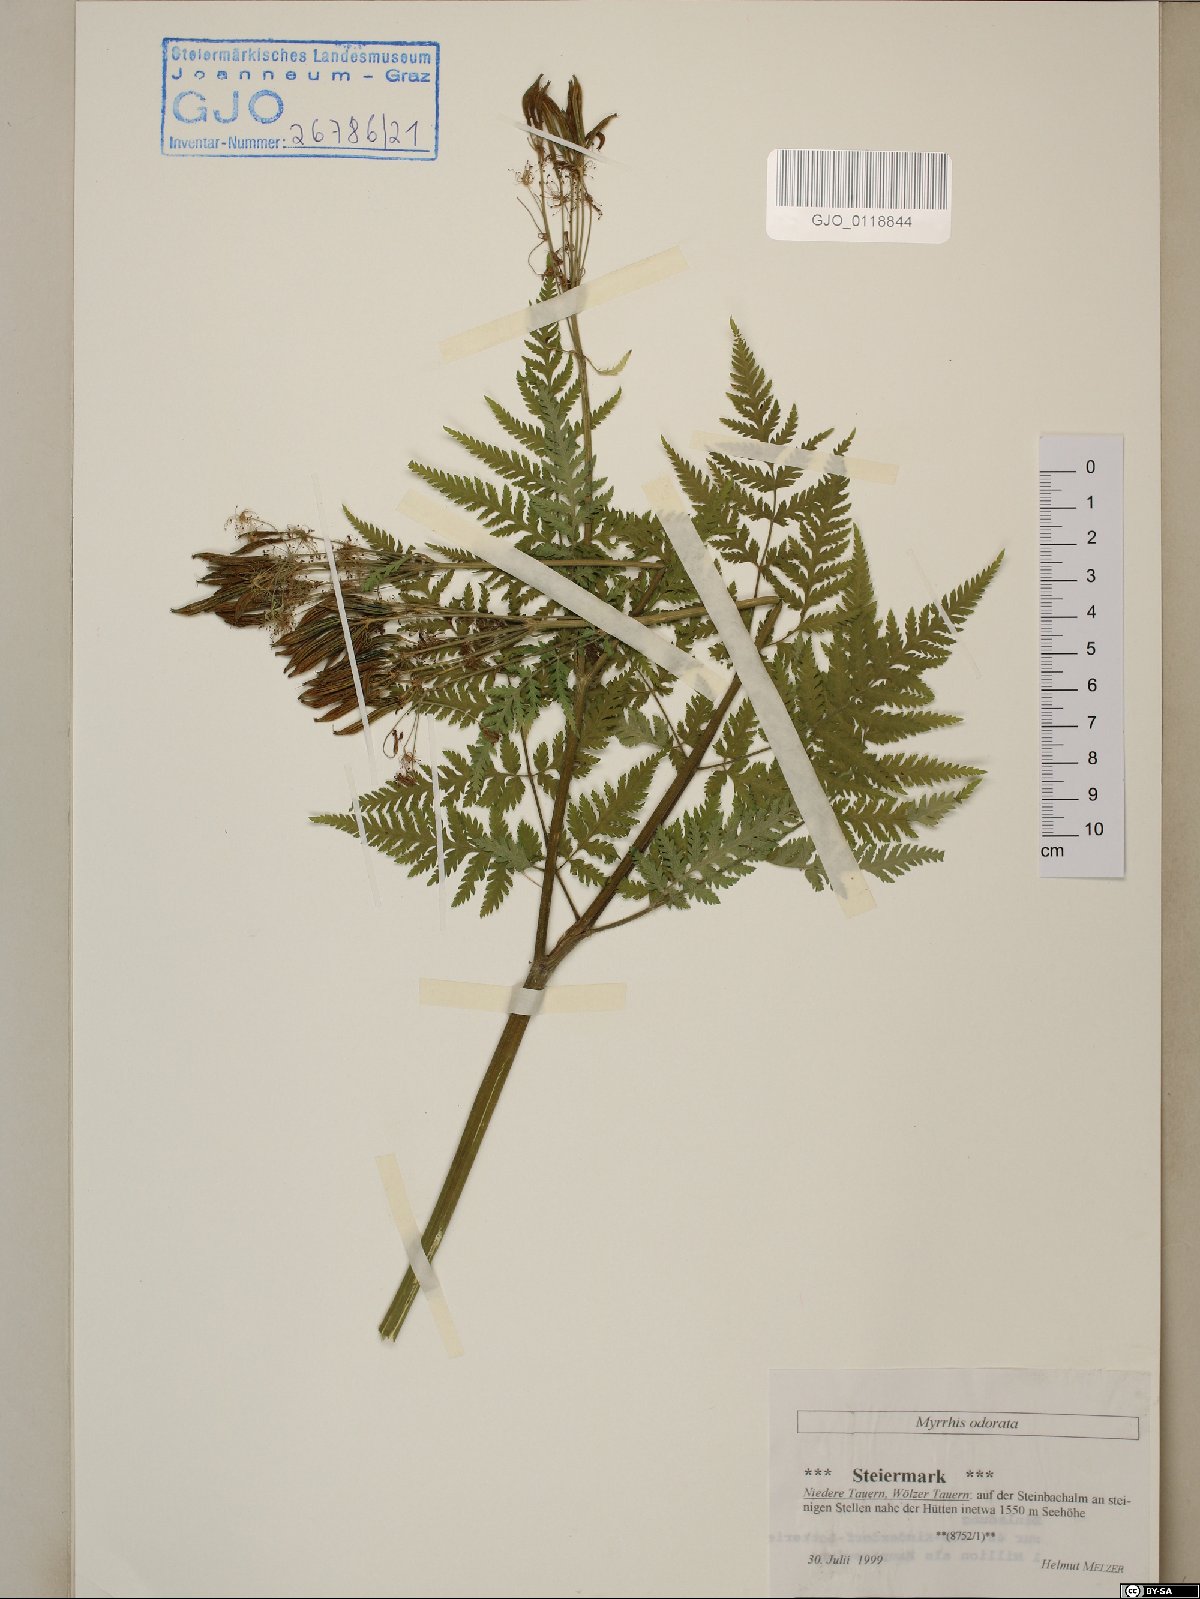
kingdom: Plantae
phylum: Tracheophyta
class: Magnoliopsida
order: Apiales
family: Apiaceae
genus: Myrrhis
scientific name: Myrrhis odorata
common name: Sweet cicely
